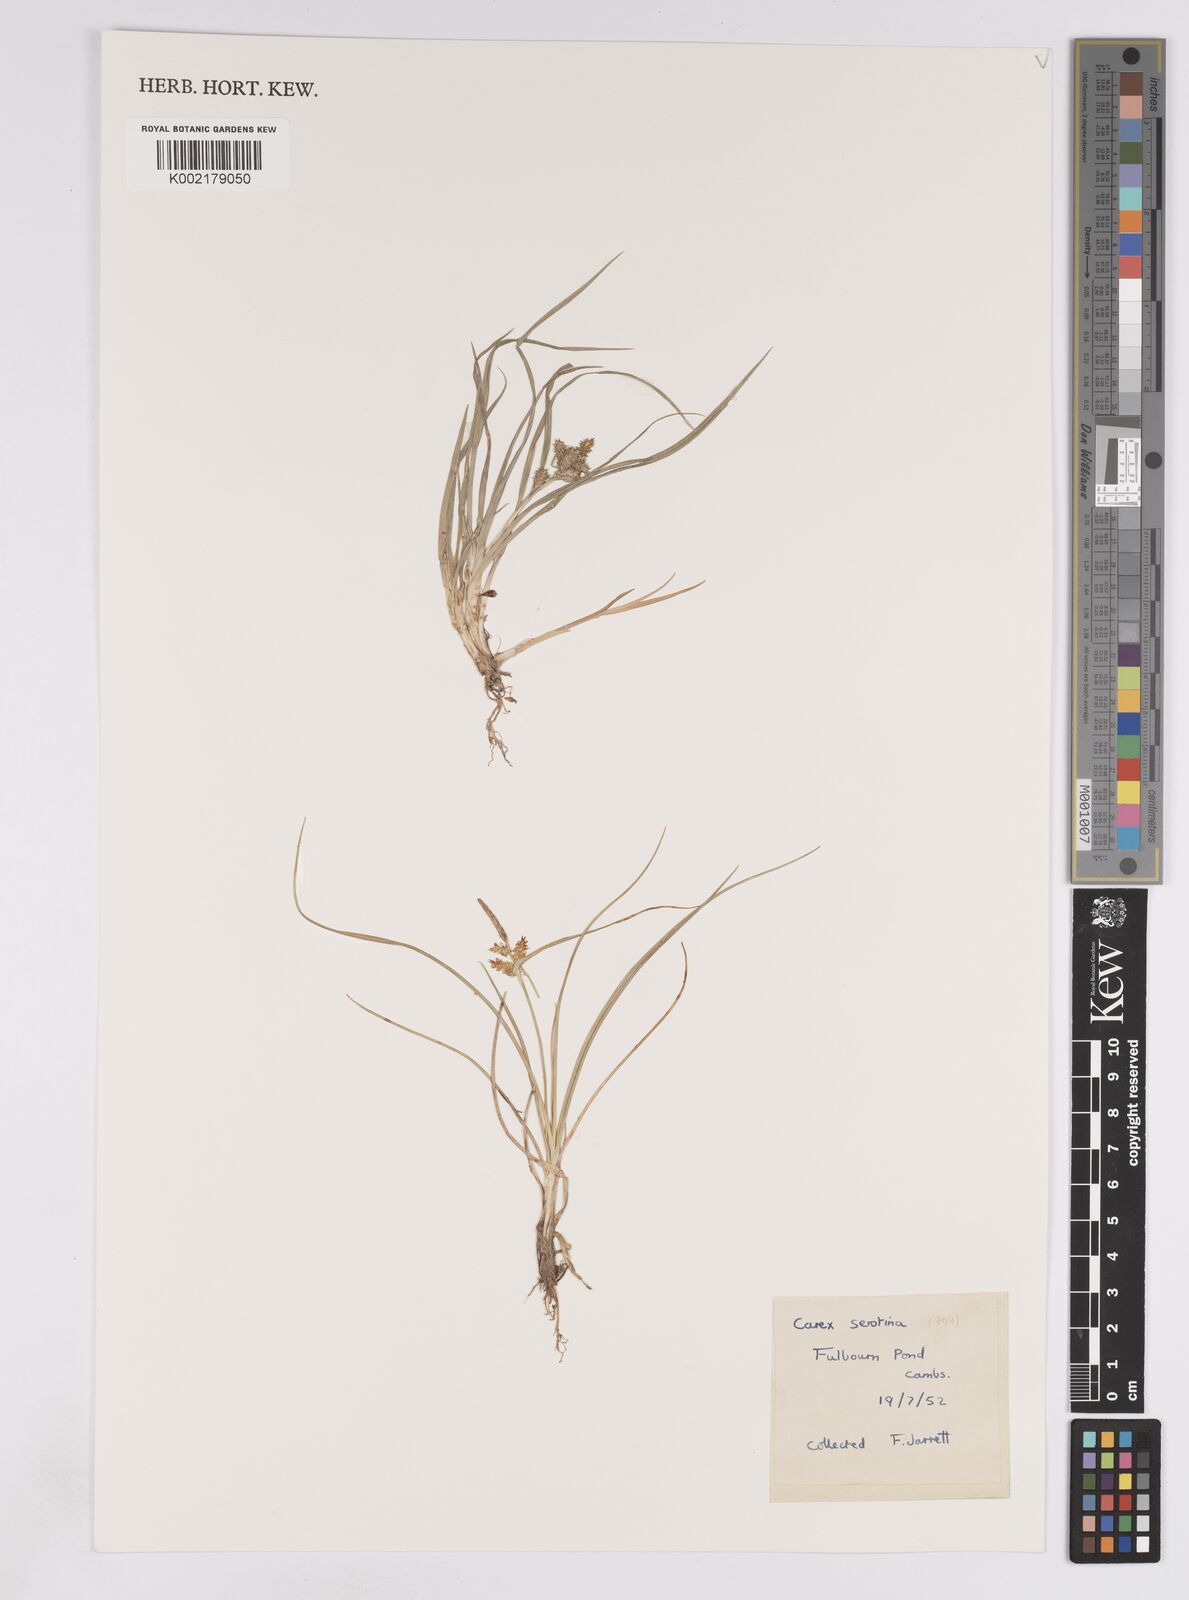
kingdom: Plantae
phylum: Tracheophyta
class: Liliopsida
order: Poales
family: Cyperaceae
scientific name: Cyperaceae
